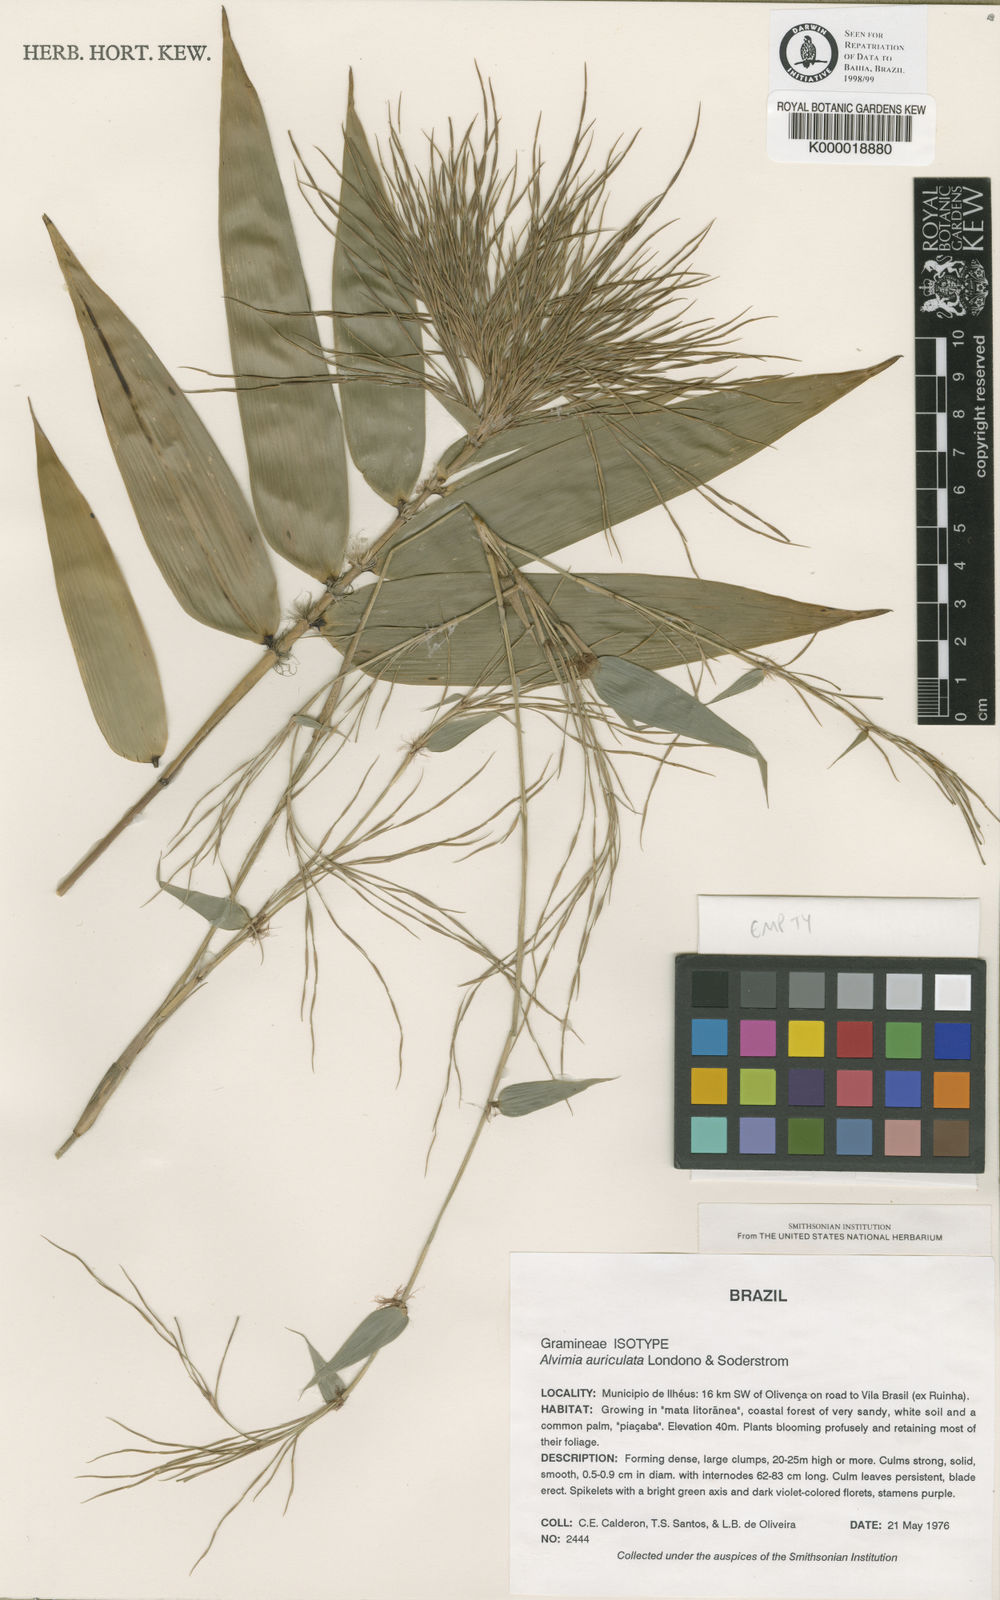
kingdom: Plantae
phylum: Tracheophyta
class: Liliopsida
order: Poales
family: Poaceae
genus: Alvimia
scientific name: Alvimia
